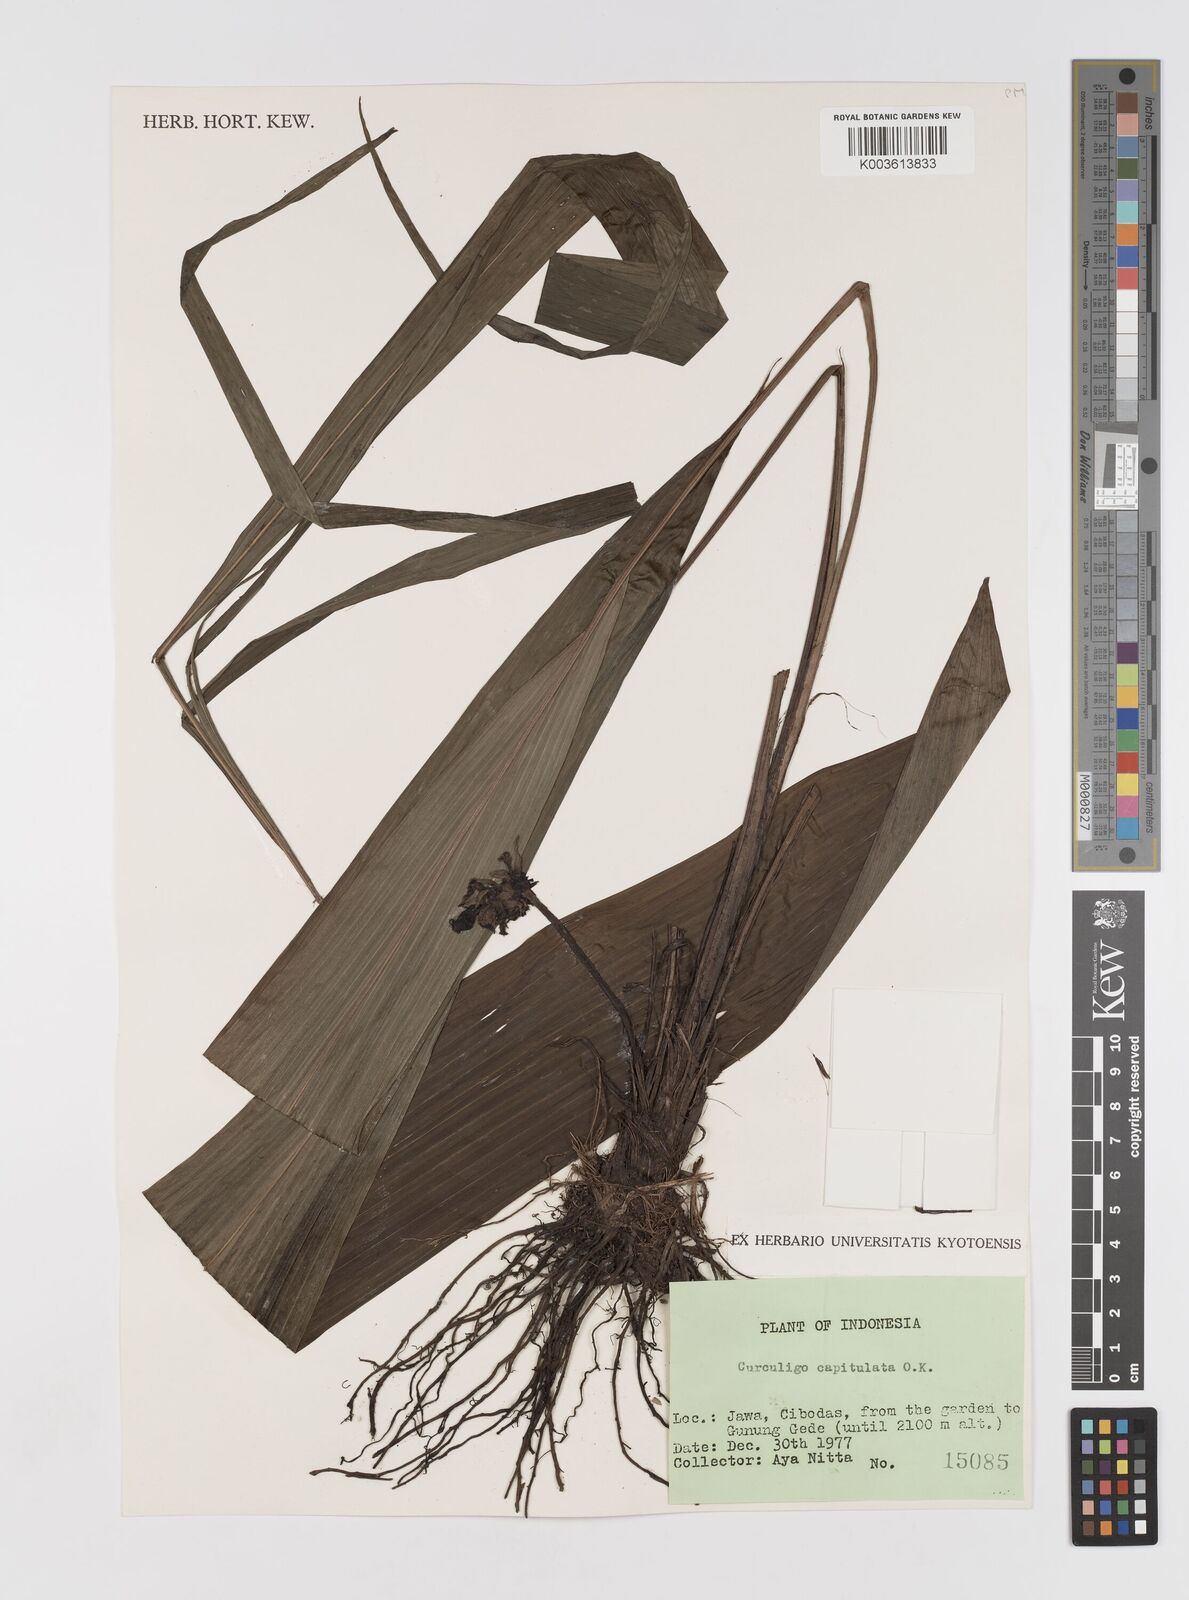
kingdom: Plantae
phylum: Tracheophyta
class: Liliopsida
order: Asparagales
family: Hypoxidaceae
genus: Curculigo
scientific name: Curculigo capitulata
